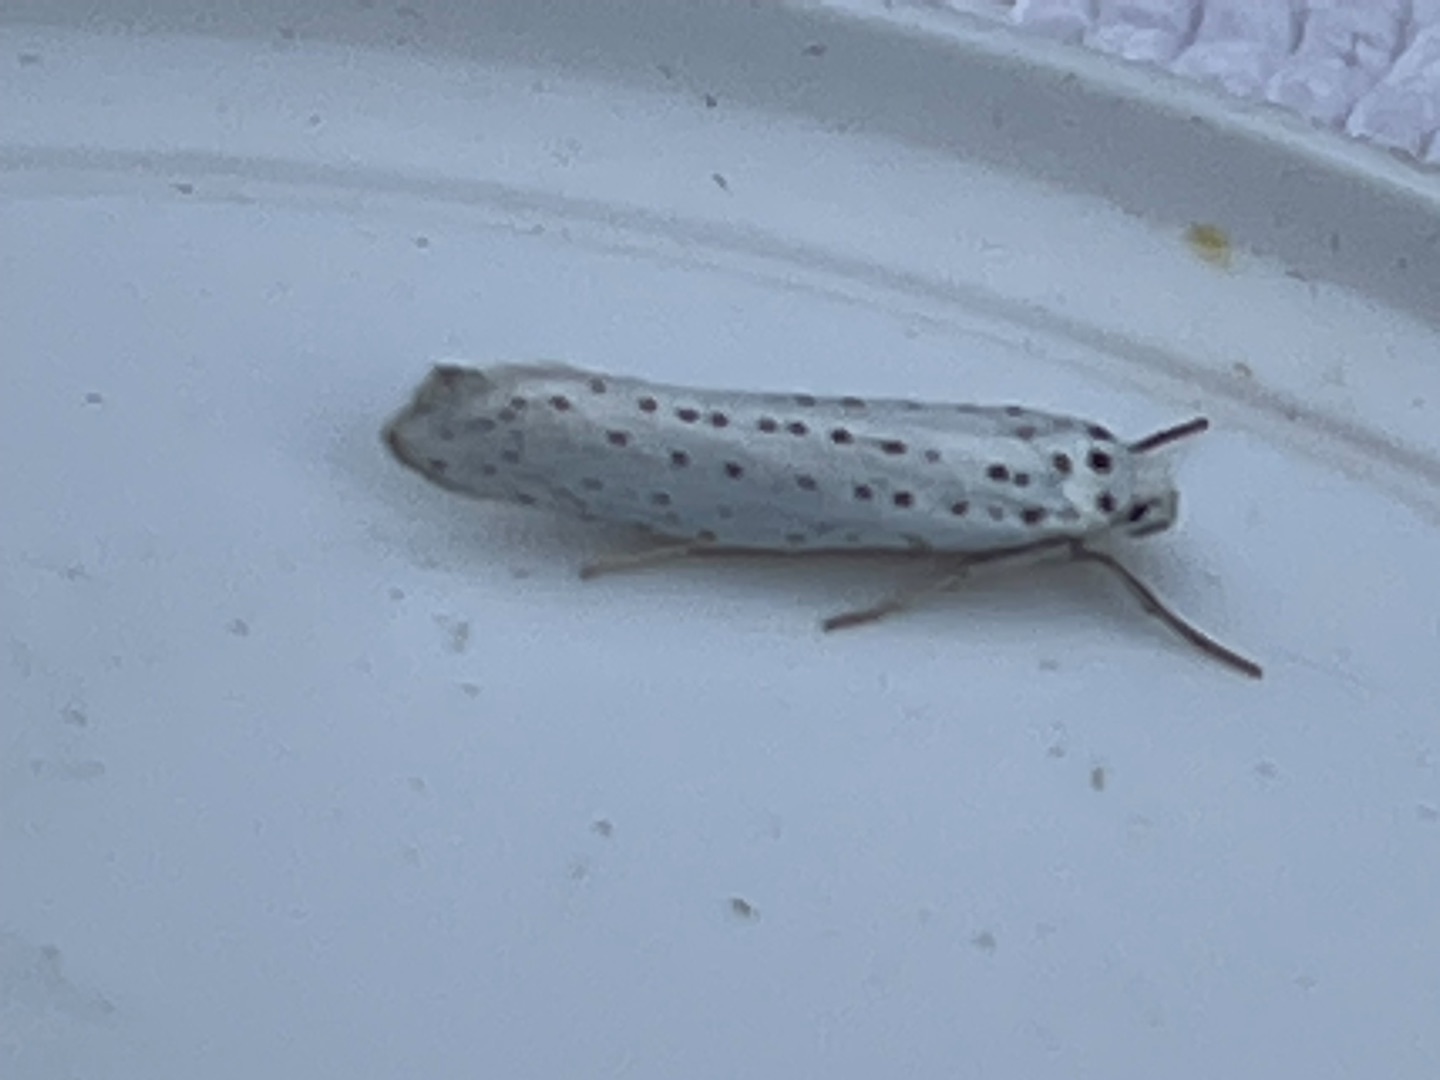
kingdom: Animalia
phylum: Arthropoda
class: Insecta
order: Lepidoptera
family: Yponomeutidae
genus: Yponomeuta
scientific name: Yponomeuta evonymella
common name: Hægspindemøl
